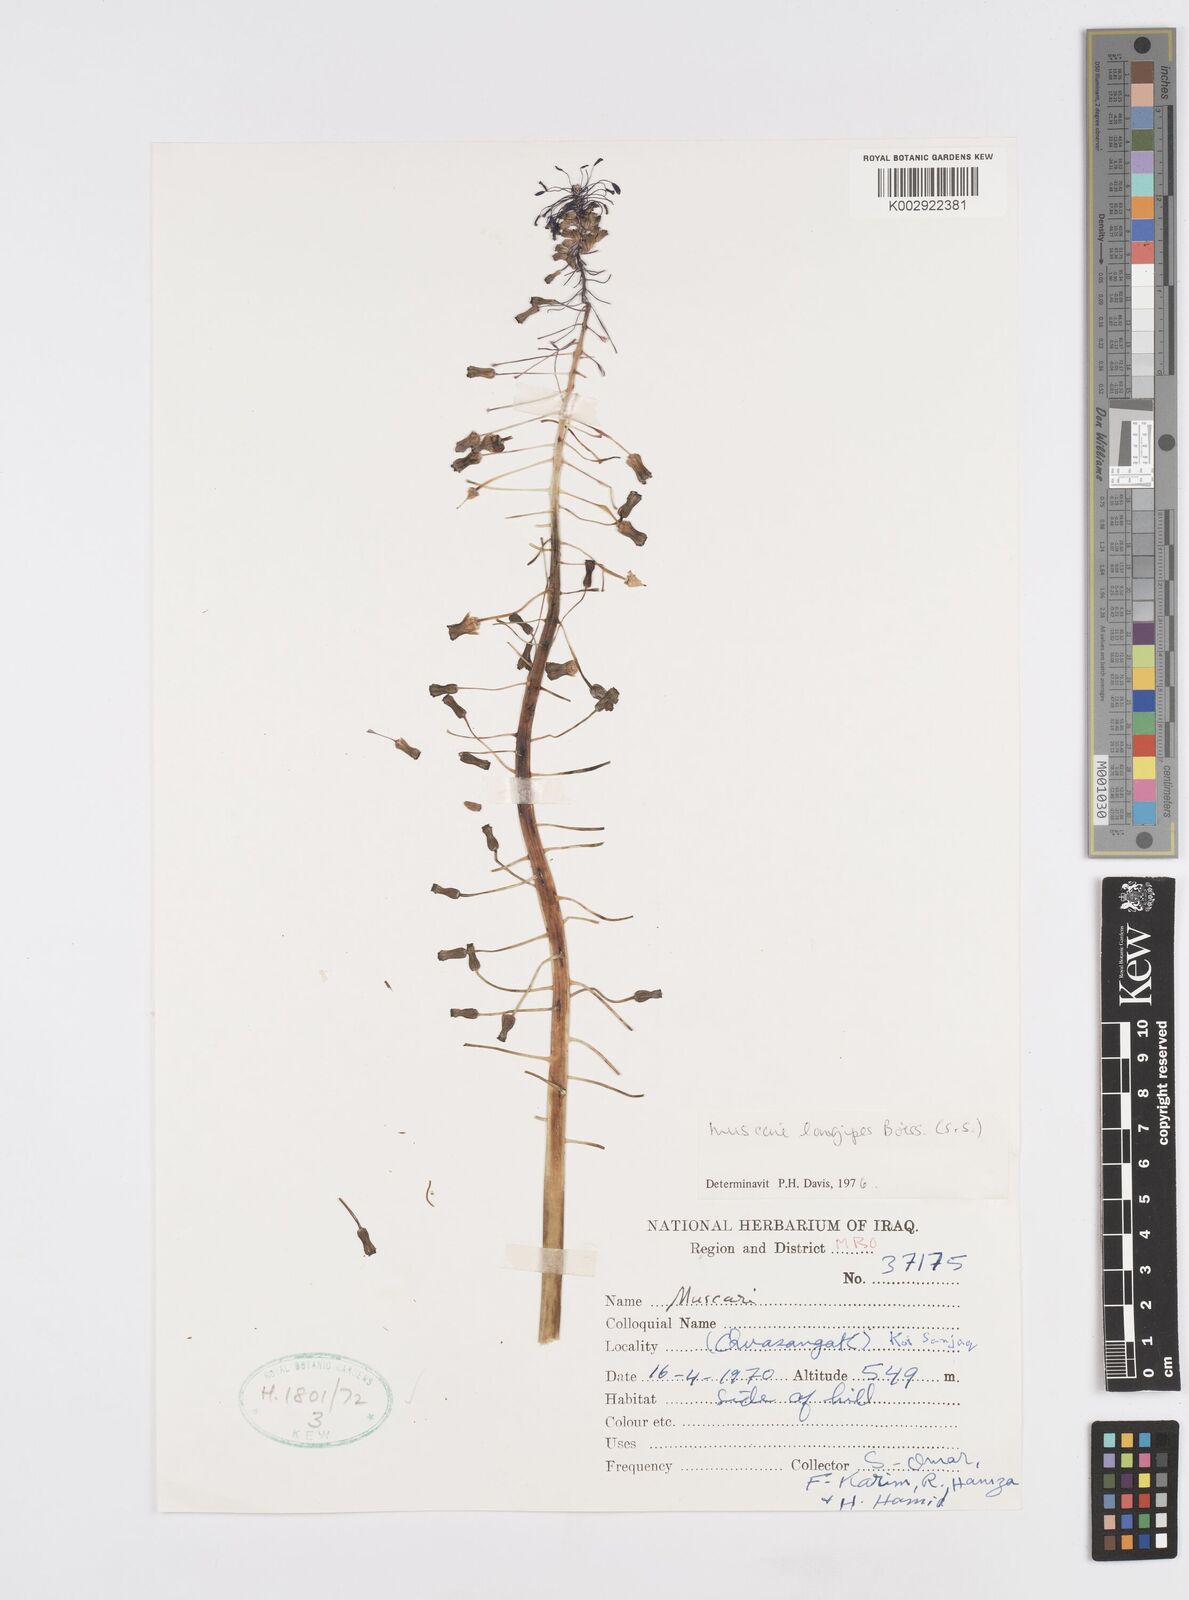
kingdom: Plantae
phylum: Tracheophyta
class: Liliopsida
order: Asparagales
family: Asparagaceae
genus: Muscari
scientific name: Muscari longipes
